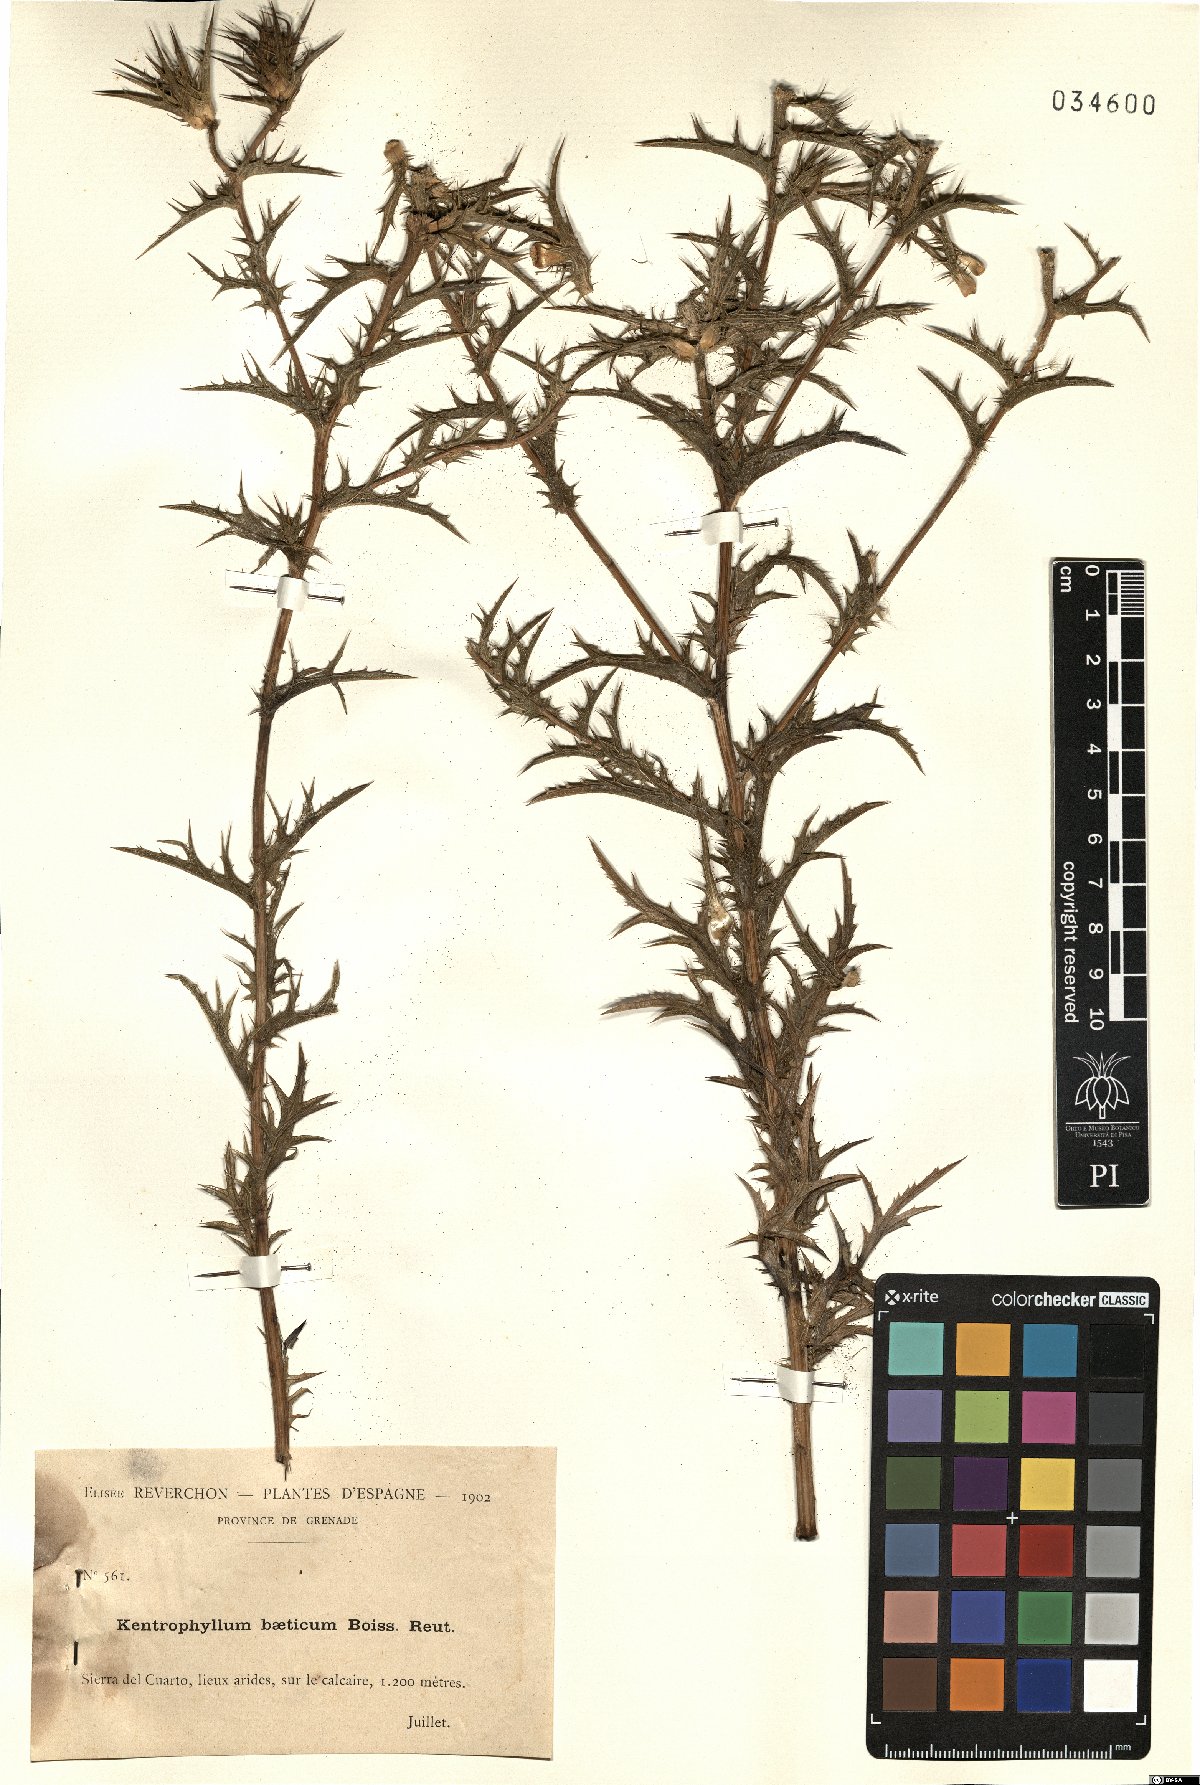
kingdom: Plantae
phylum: Tracheophyta
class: Magnoliopsida
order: Asterales
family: Asteraceae
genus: Carthamus
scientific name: Carthamus creticus
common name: Smooth distaff thistle
